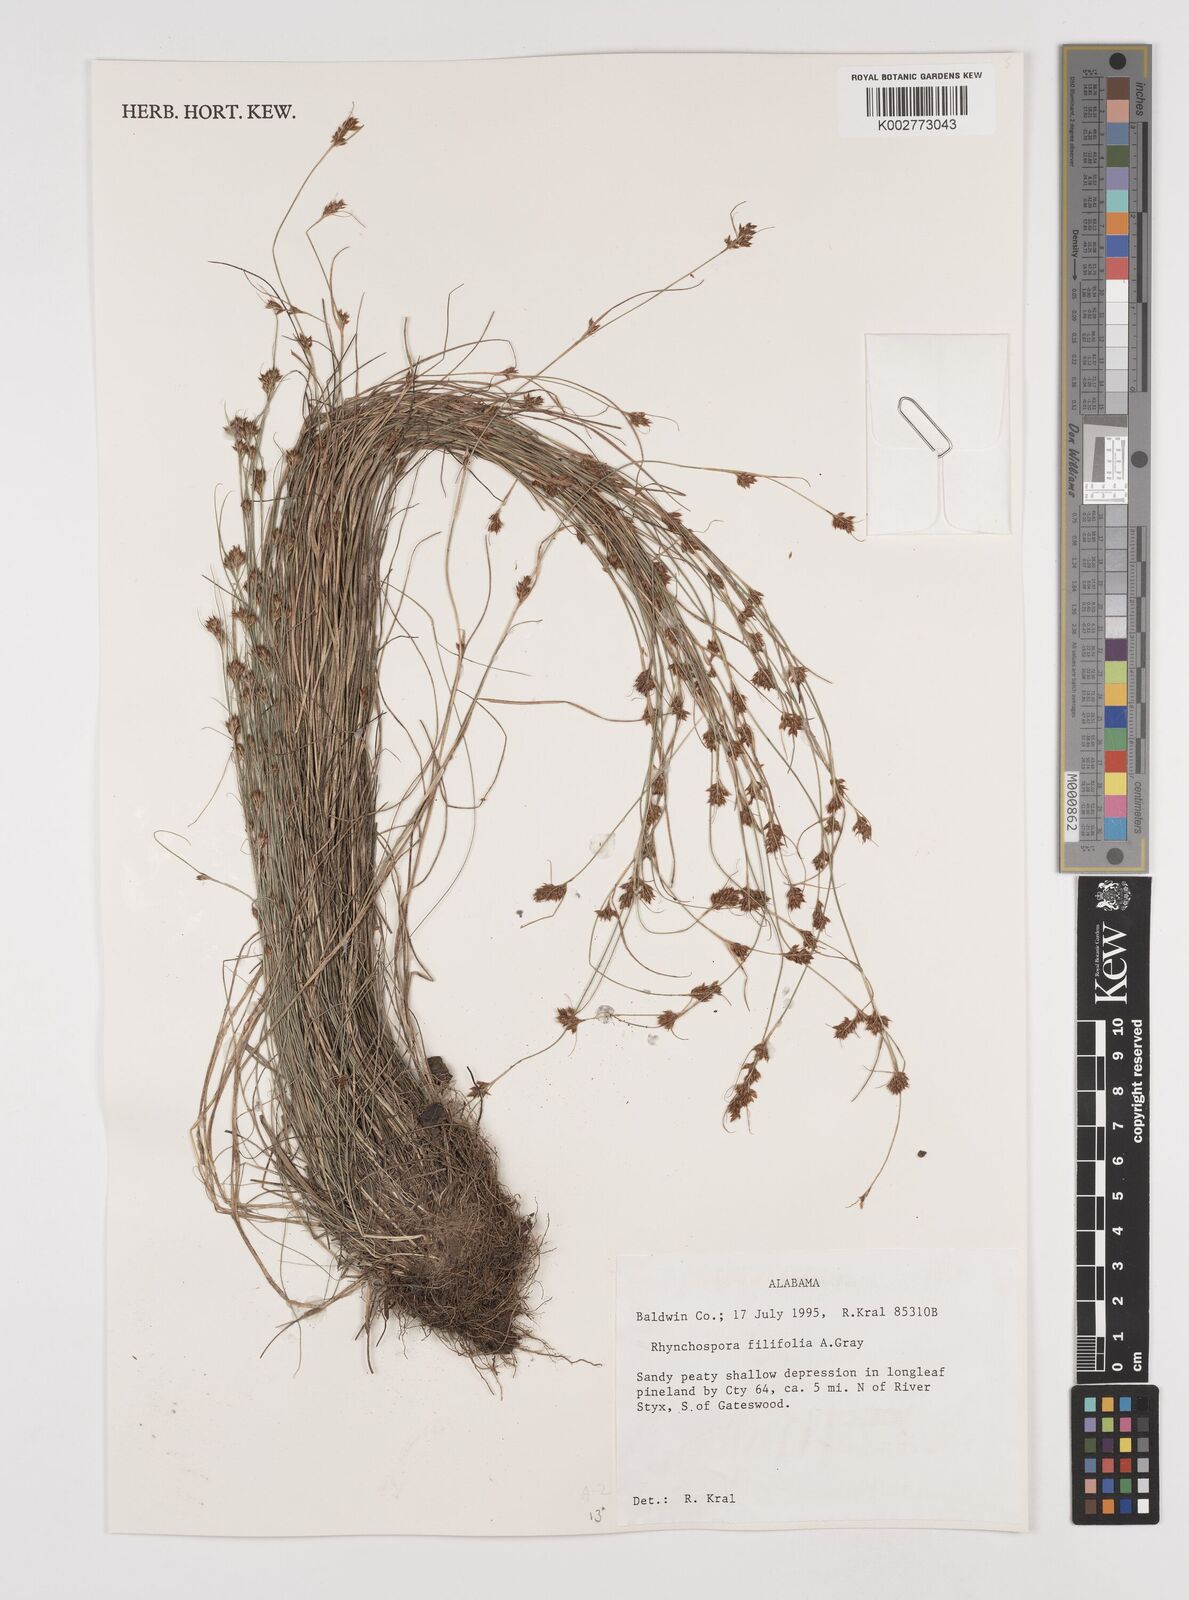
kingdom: Plantae
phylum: Tracheophyta
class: Liliopsida
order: Poales
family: Cyperaceae
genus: Rhynchospora
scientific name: Rhynchospora filifolia
